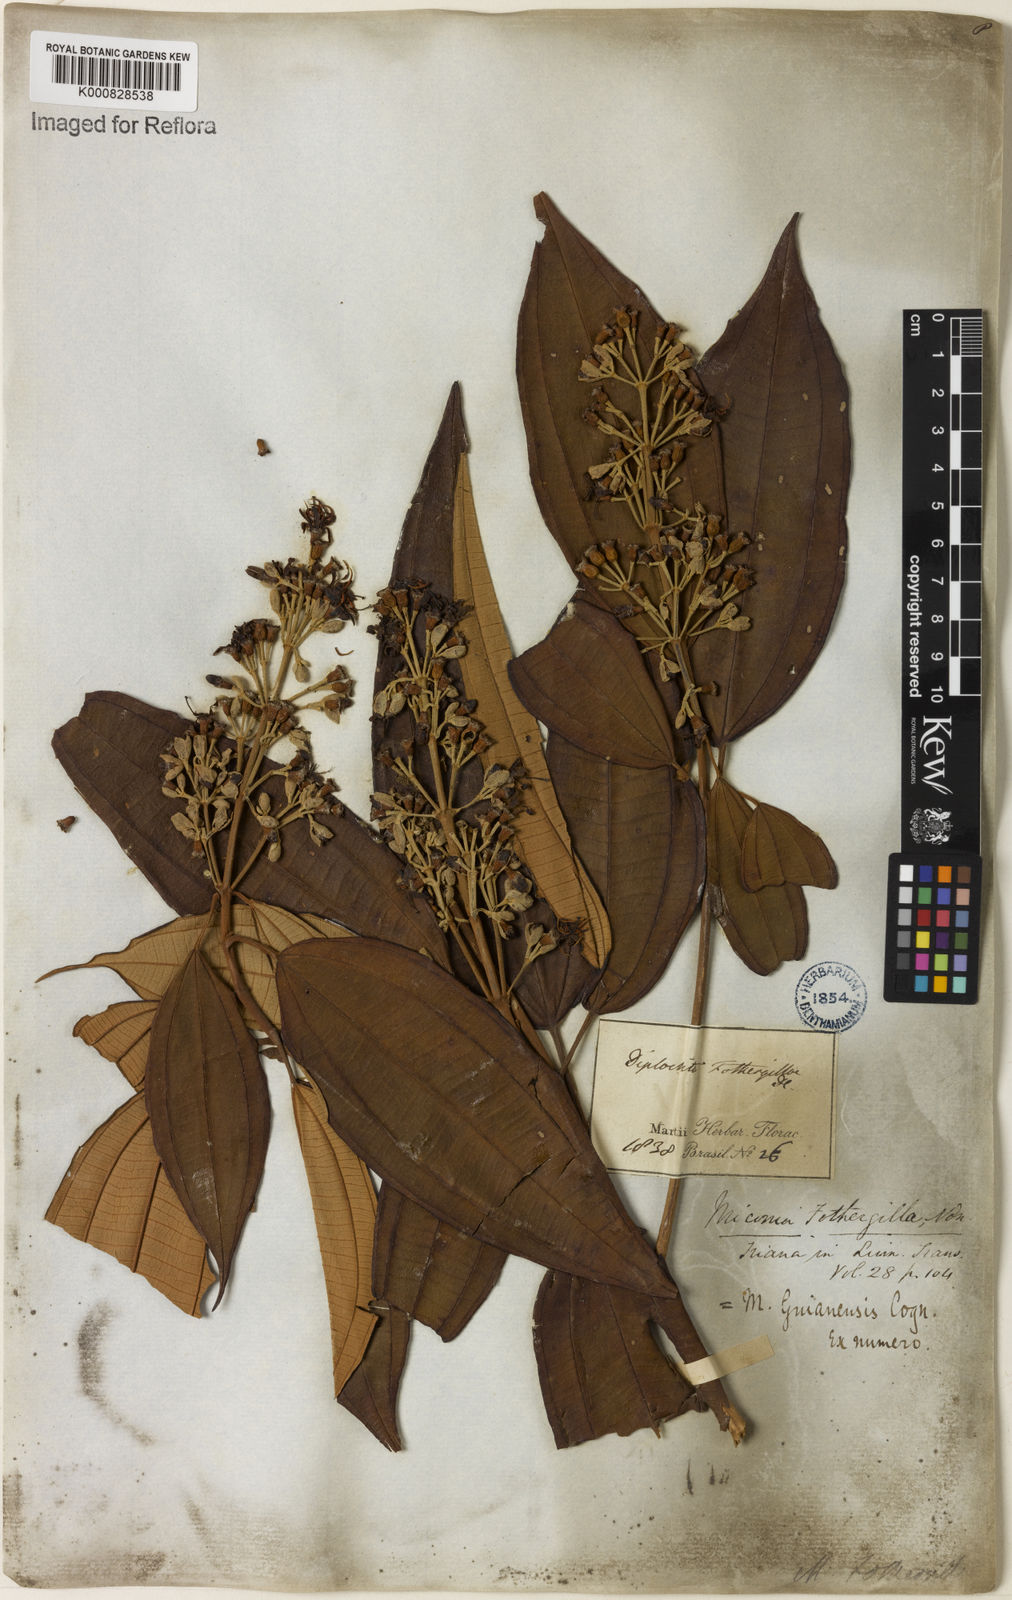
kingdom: Plantae
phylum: Tracheophyta
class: Magnoliopsida
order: Myrtales
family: Melastomataceae
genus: Miconia
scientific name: Miconia mirabilis
